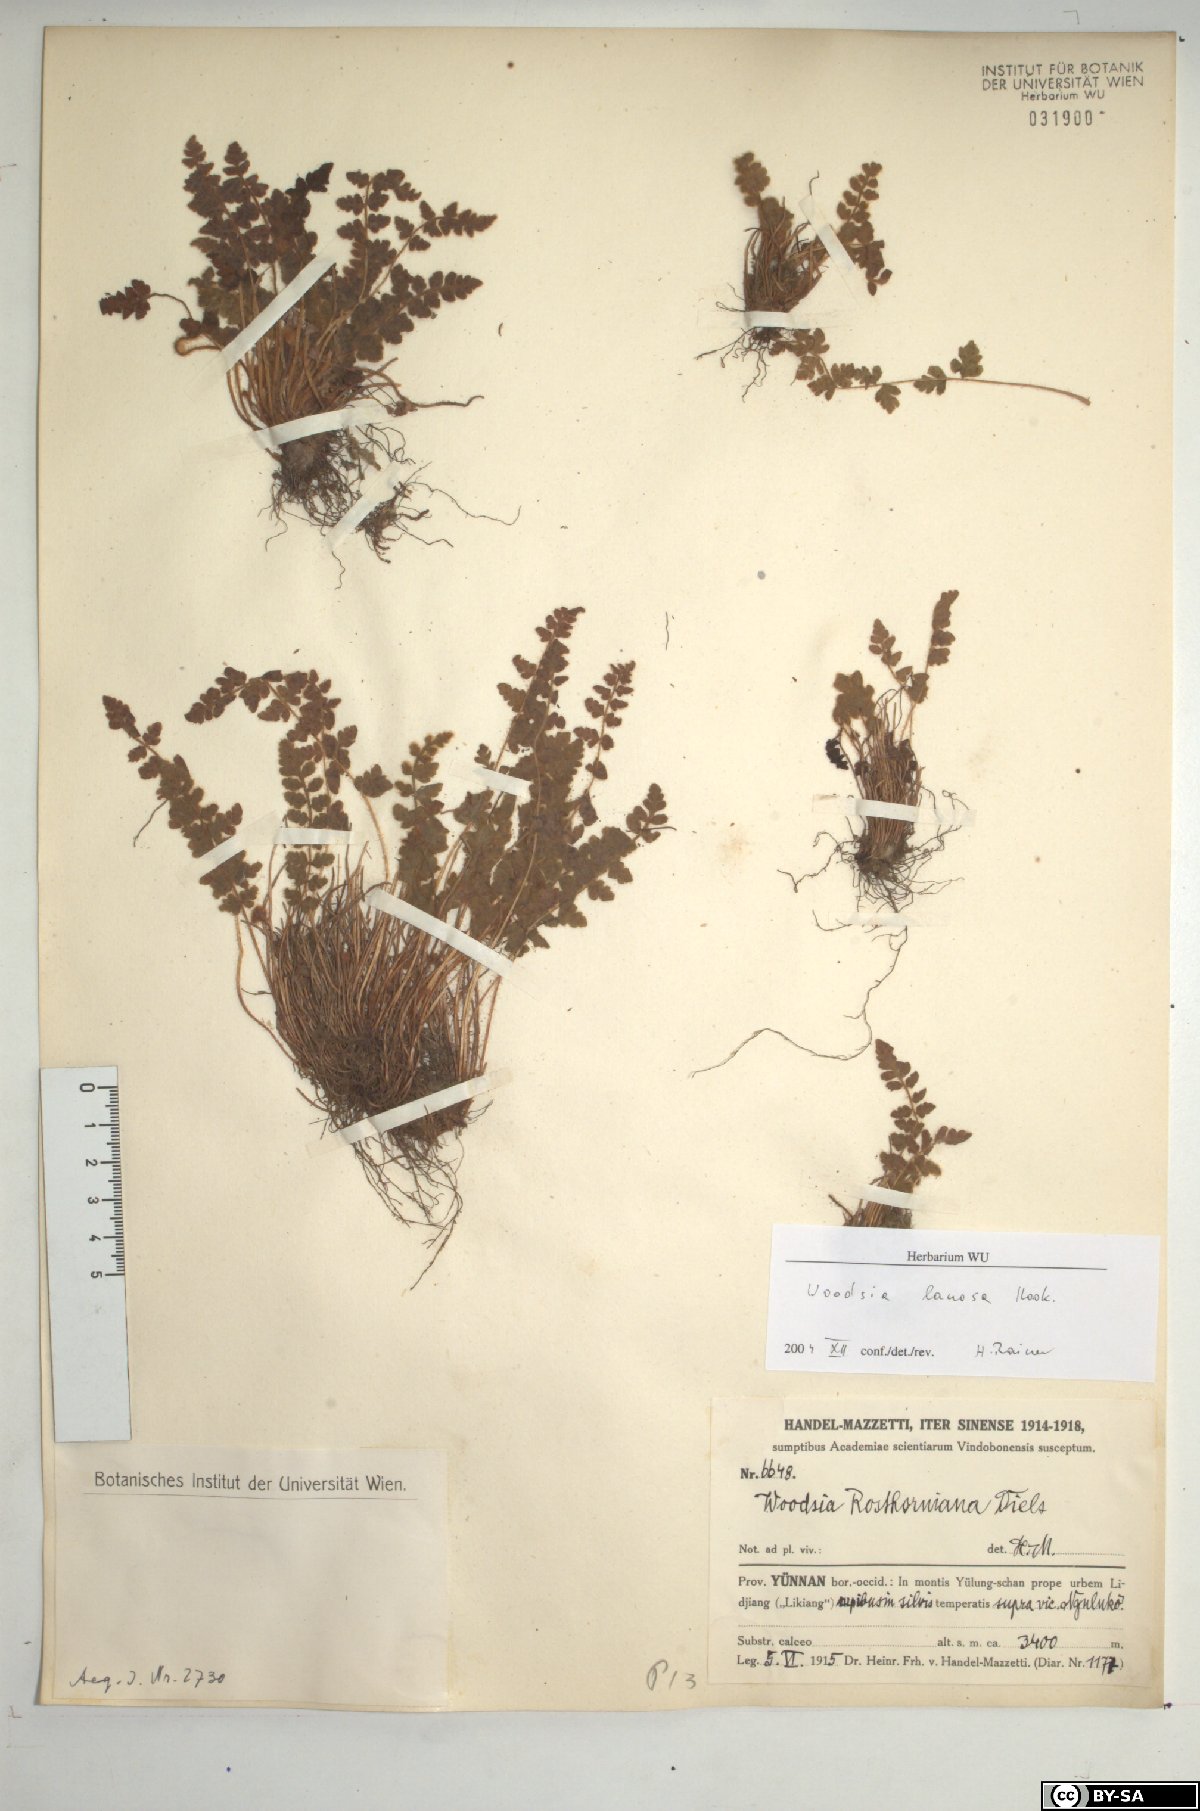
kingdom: Plantae
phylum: Tracheophyta
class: Polypodiopsida
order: Polypodiales
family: Woodsiaceae
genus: Woodsia
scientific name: Woodsia rosthorniana
